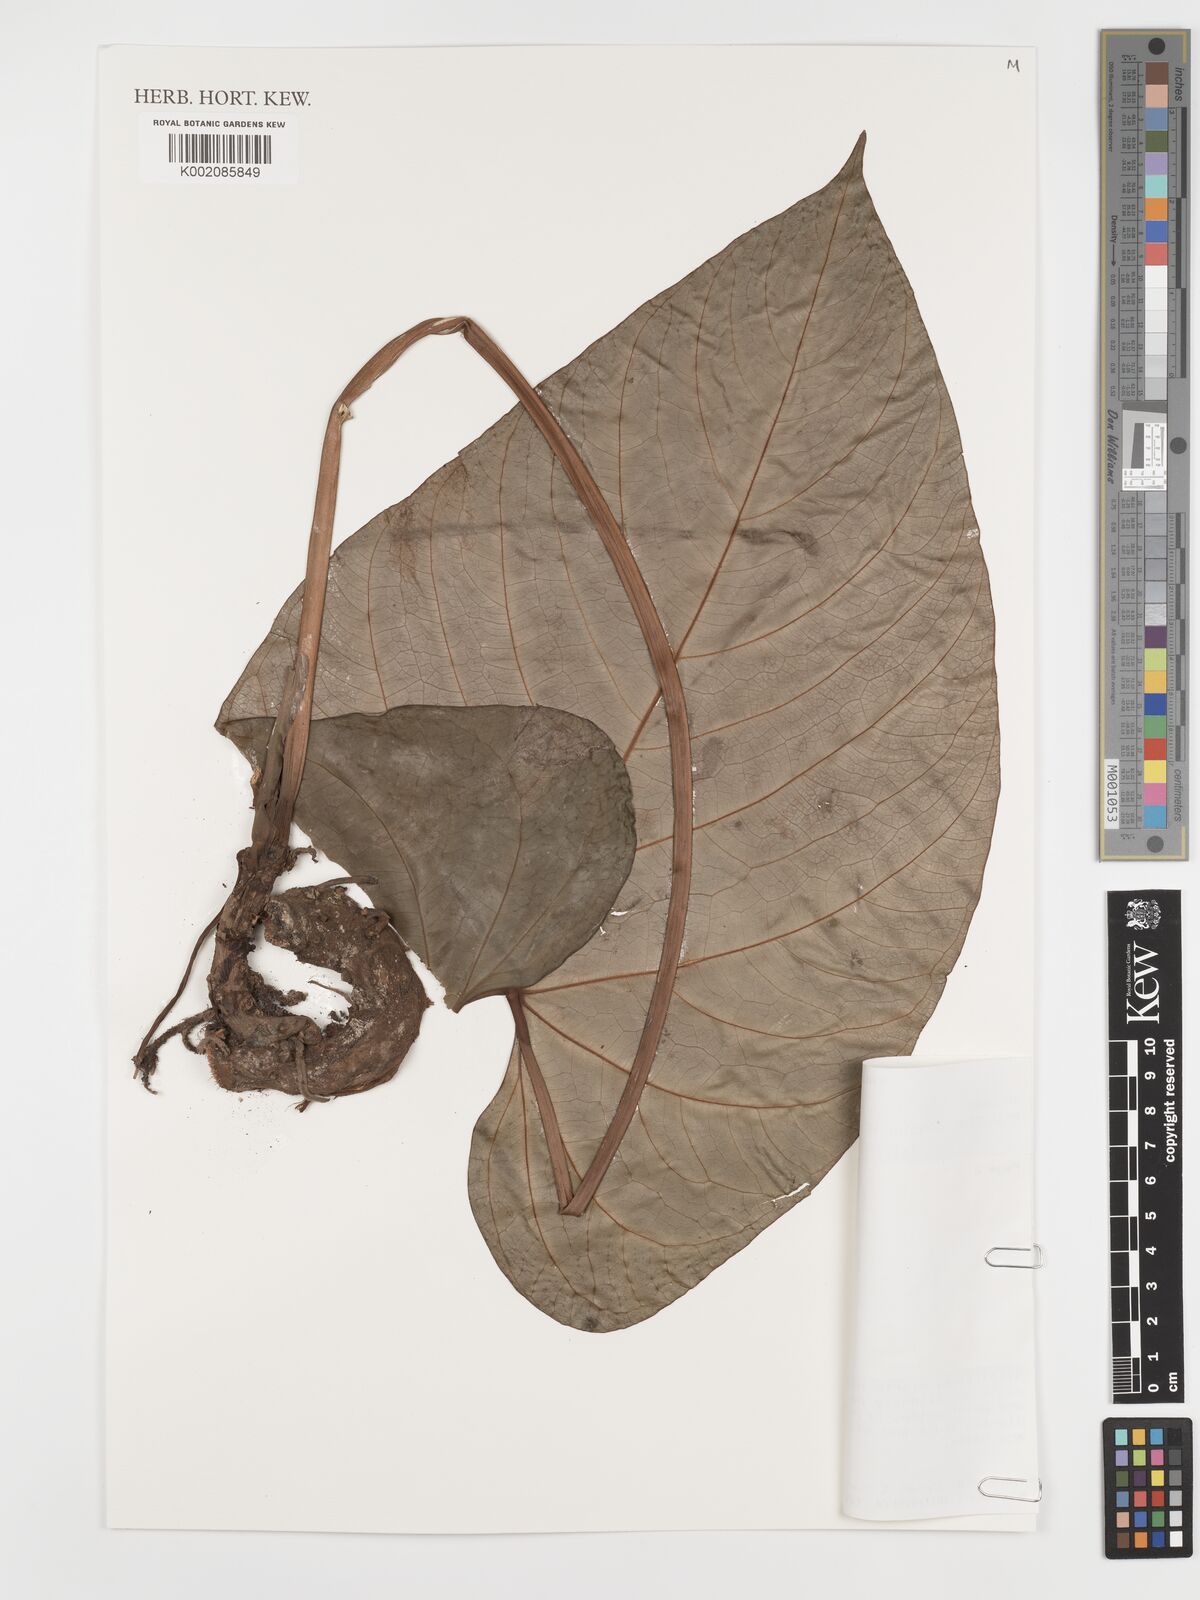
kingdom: Plantae
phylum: Tracheophyta
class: Liliopsida
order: Alismatales
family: Araceae
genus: Anthurium
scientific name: Anthurium consimile
